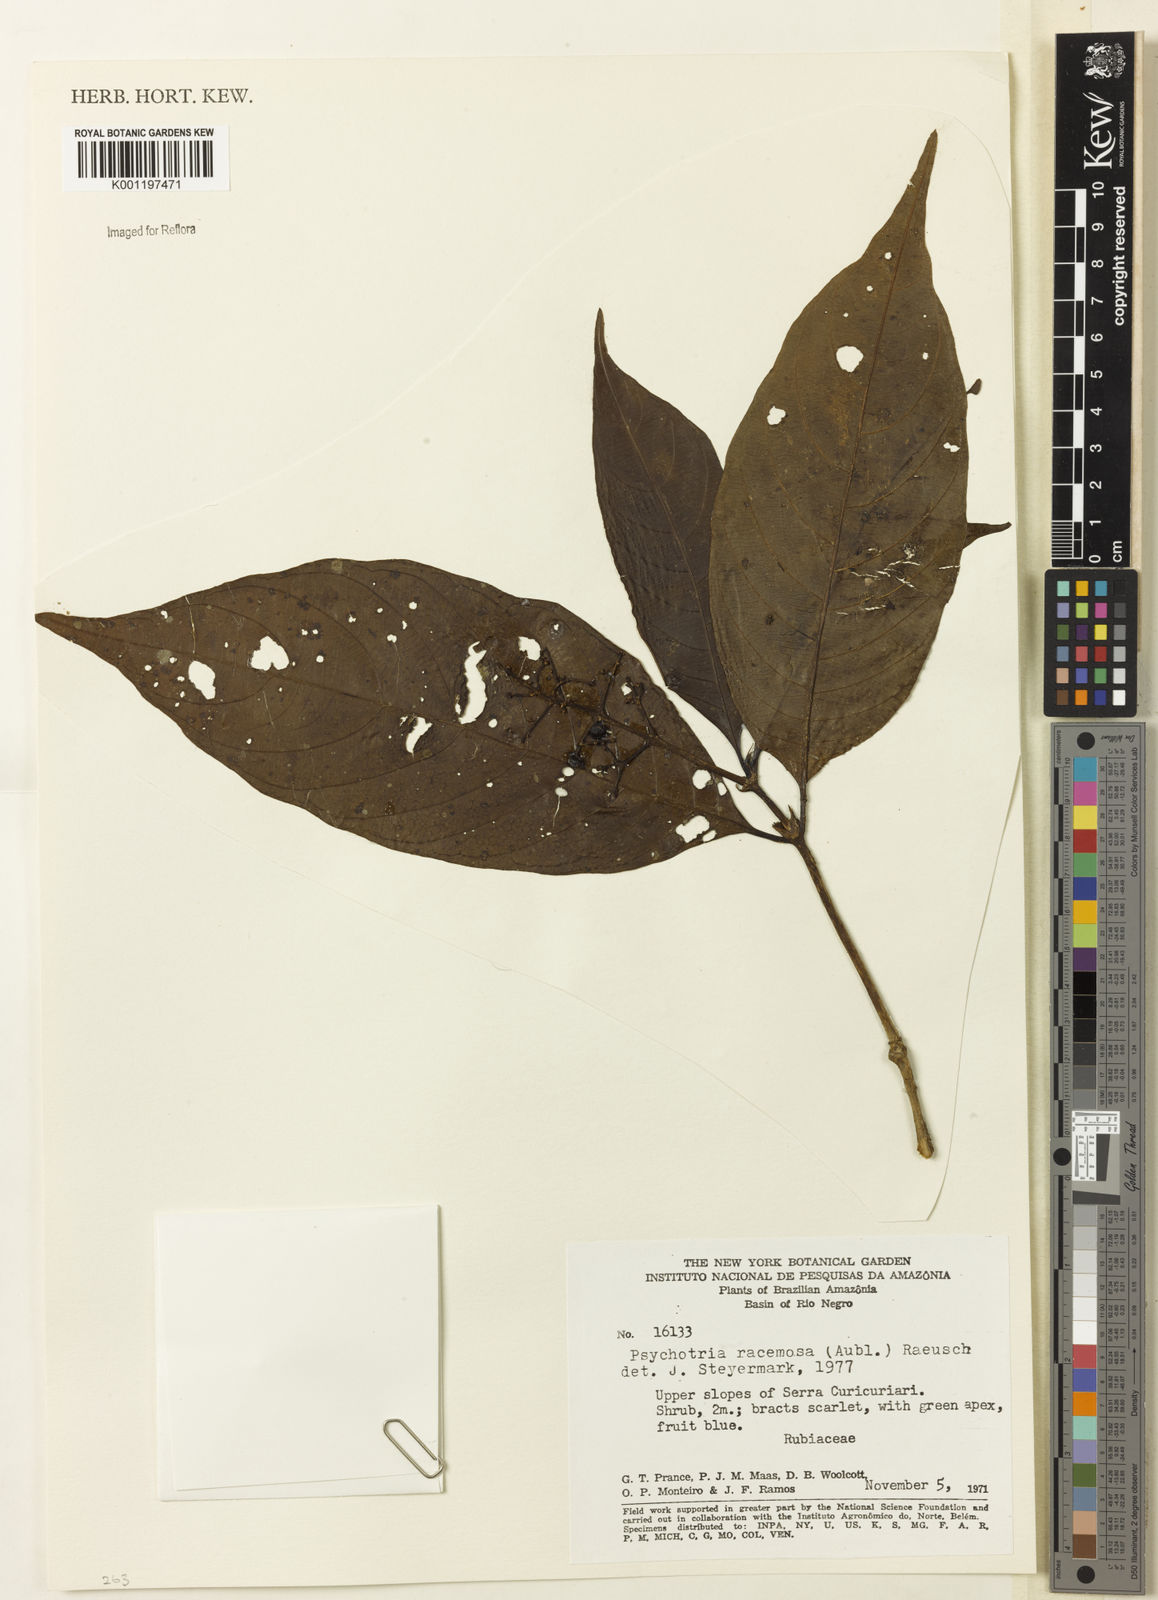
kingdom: Plantae
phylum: Tracheophyta
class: Magnoliopsida
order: Gentianales
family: Rubiaceae
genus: Palicourea
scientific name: Palicourea racemosa
